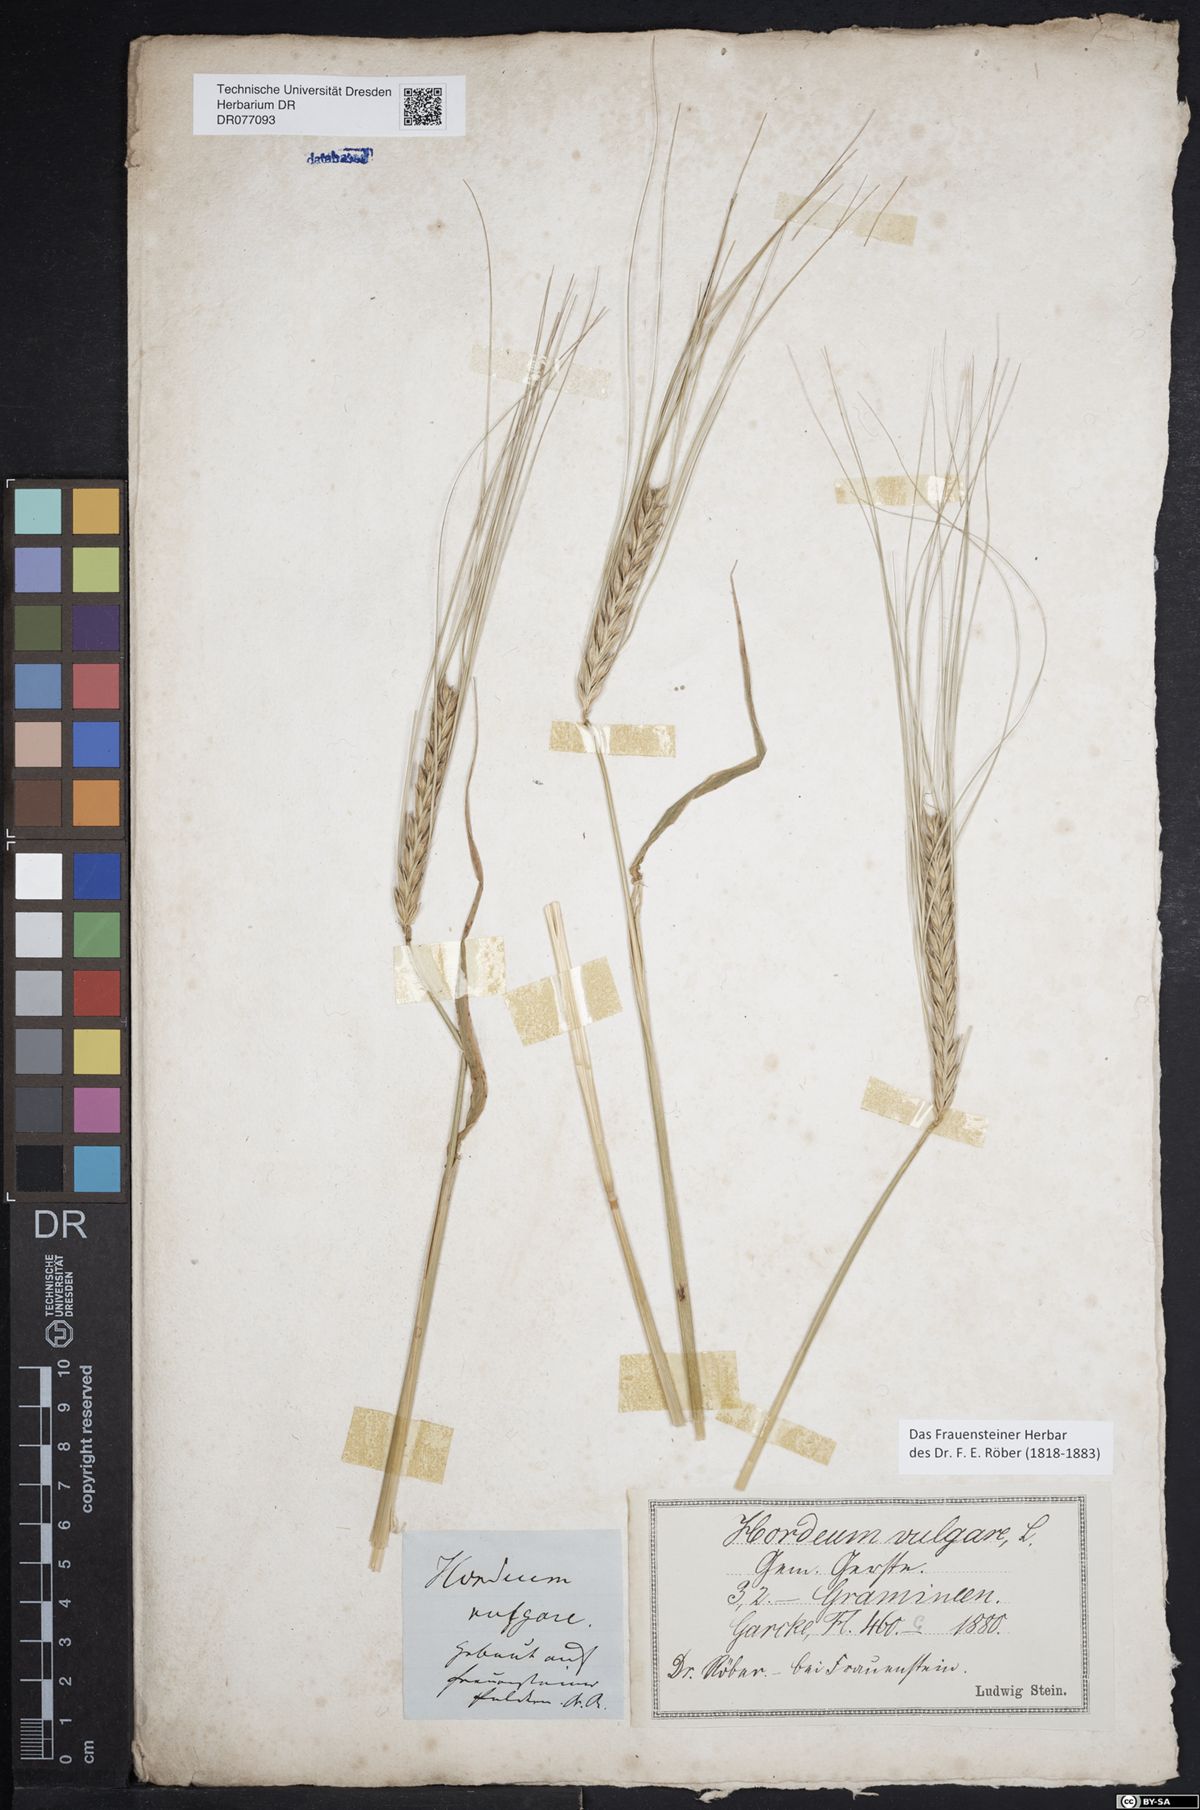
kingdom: Plantae
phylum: Tracheophyta
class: Liliopsida
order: Poales
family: Poaceae
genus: Hordeum
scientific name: Hordeum vulgare
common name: Common barley
